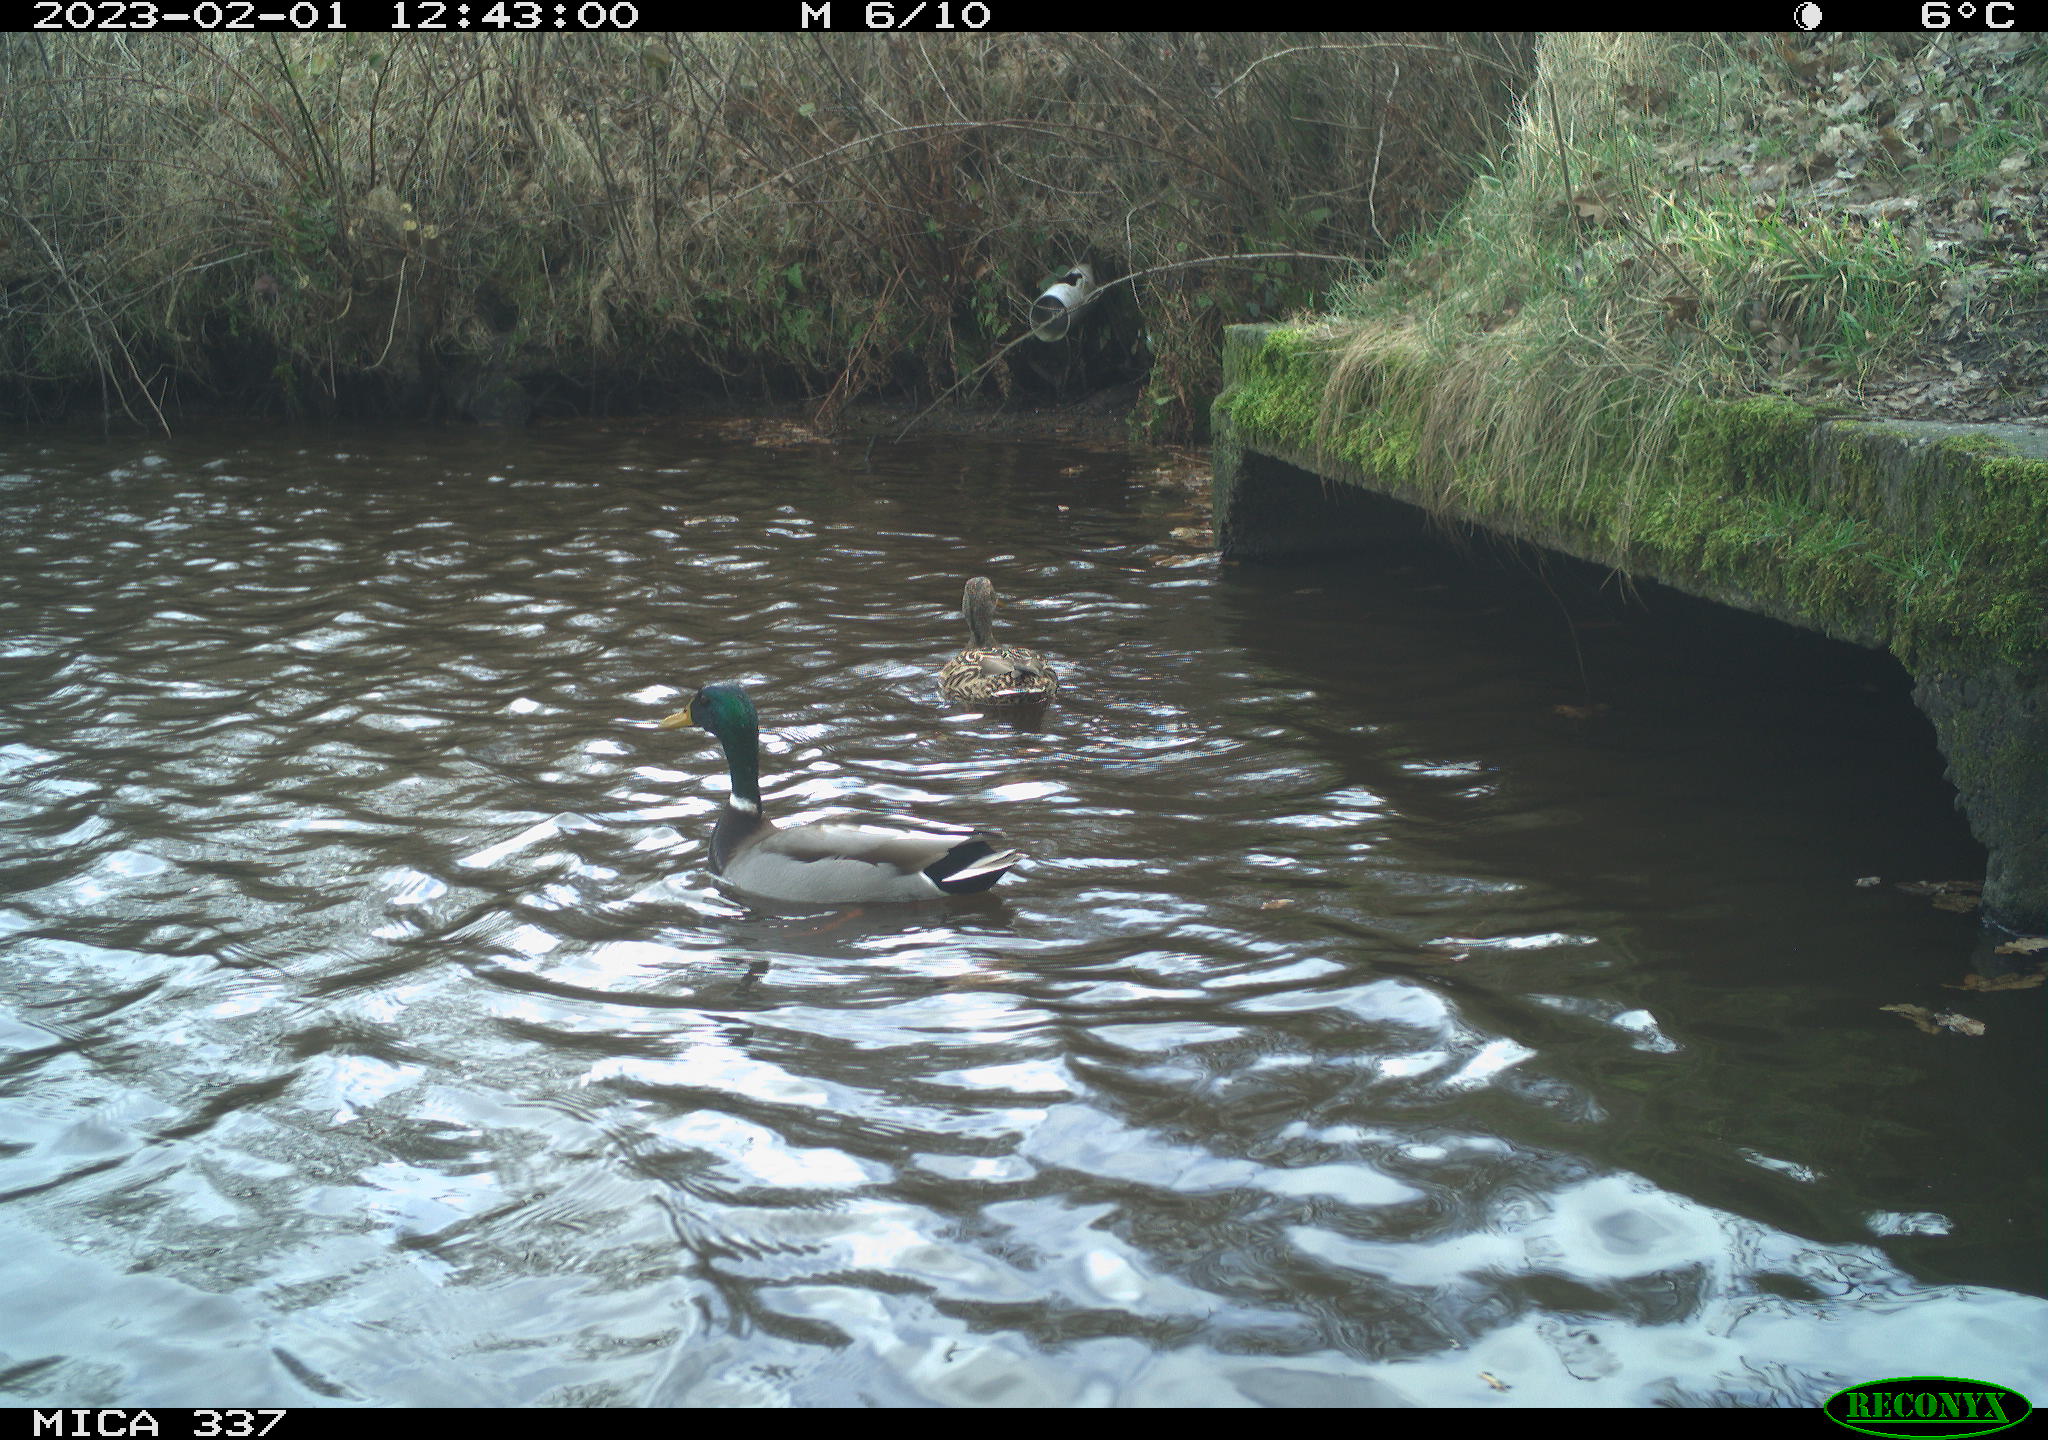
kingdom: Animalia
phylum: Chordata
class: Aves
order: Anseriformes
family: Anatidae
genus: Anas
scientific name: Anas
